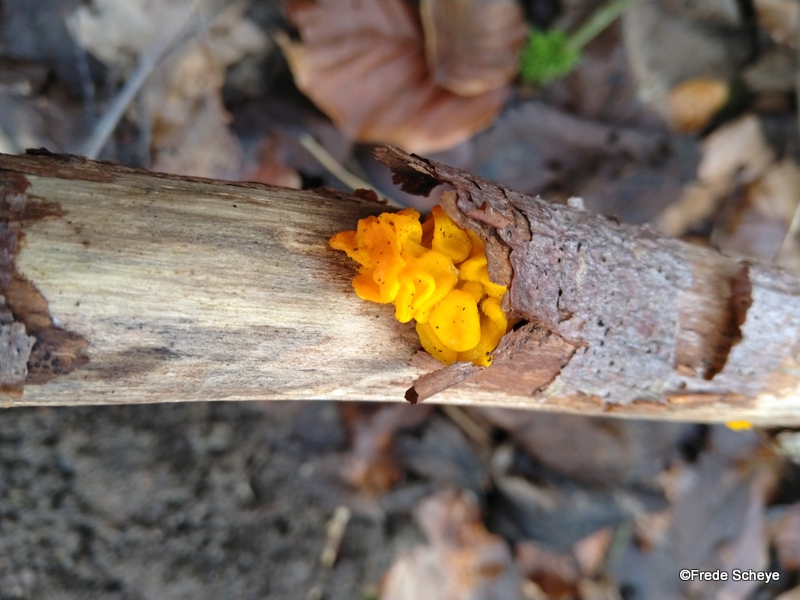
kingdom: Fungi
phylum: Basidiomycota
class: Tremellomycetes
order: Tremellales
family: Tremellaceae
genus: Tremella
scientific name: Tremella mesenterica
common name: gul bævresvamp
